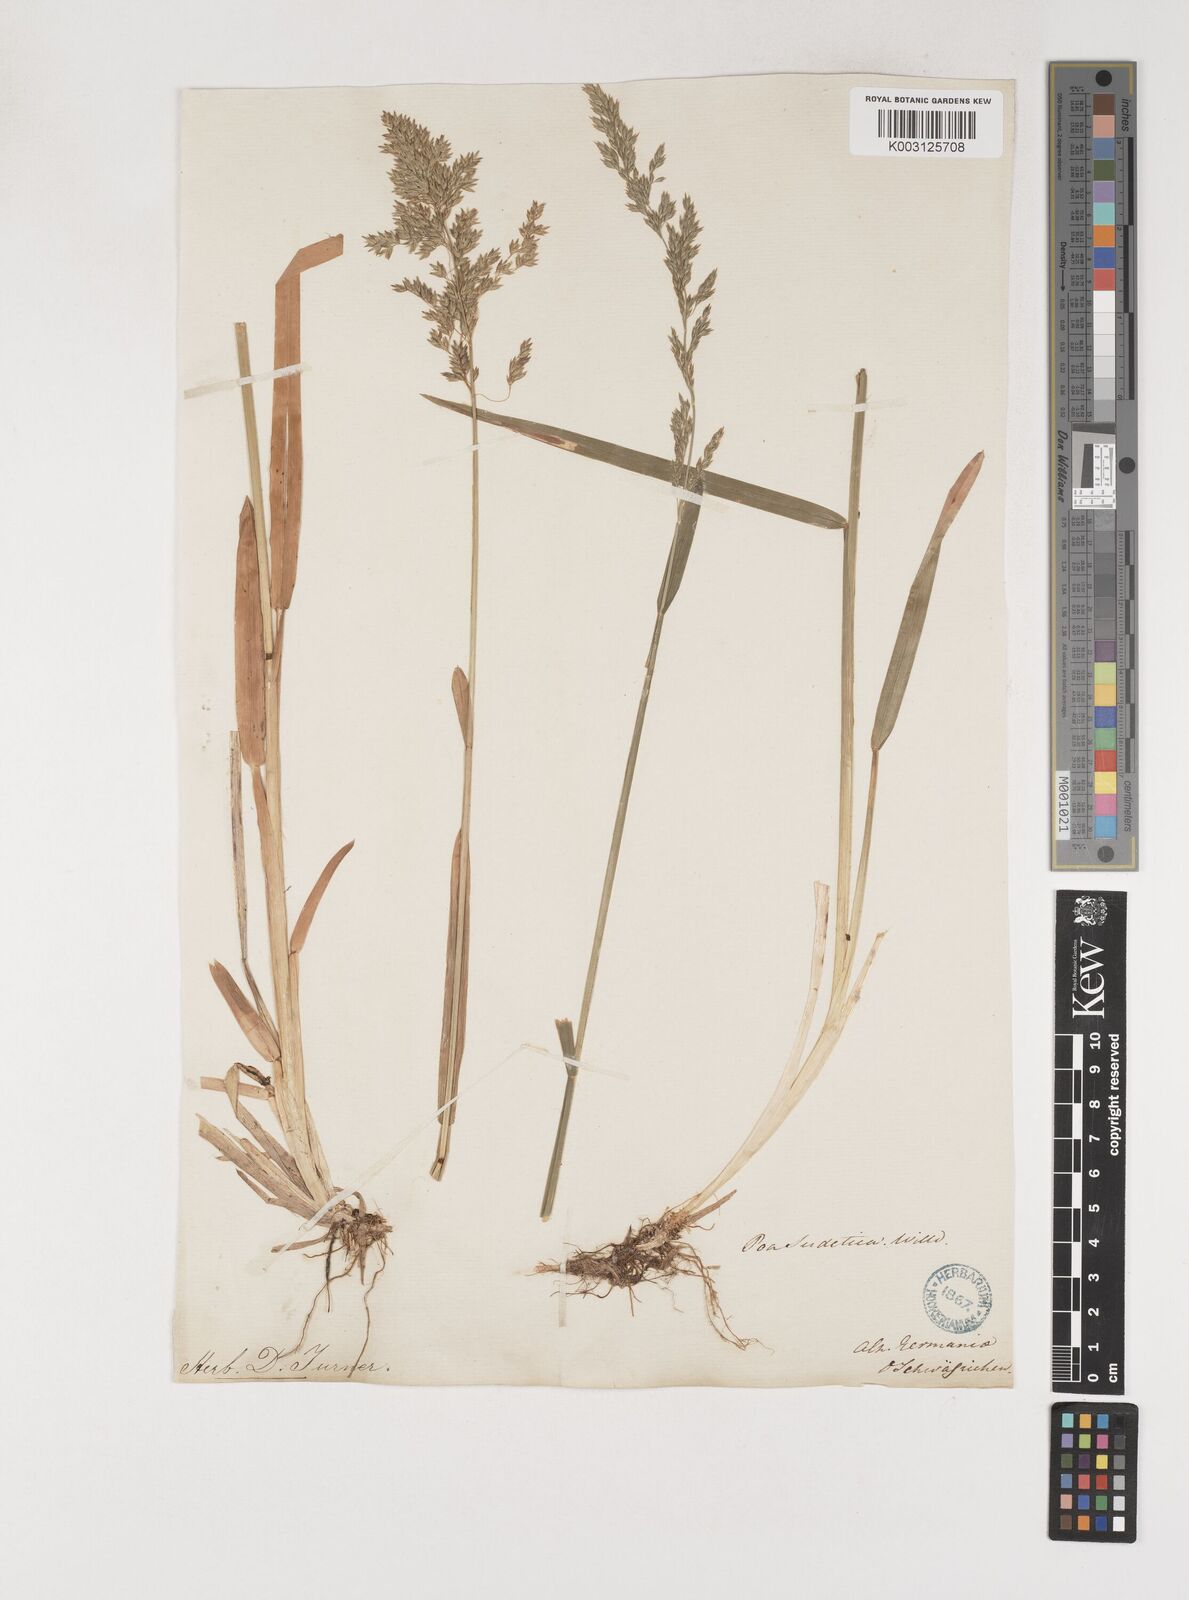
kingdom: Plantae
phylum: Tracheophyta
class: Liliopsida
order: Poales
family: Poaceae
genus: Poa
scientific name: Poa chaixii
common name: Broad-leaved meadow-grass
